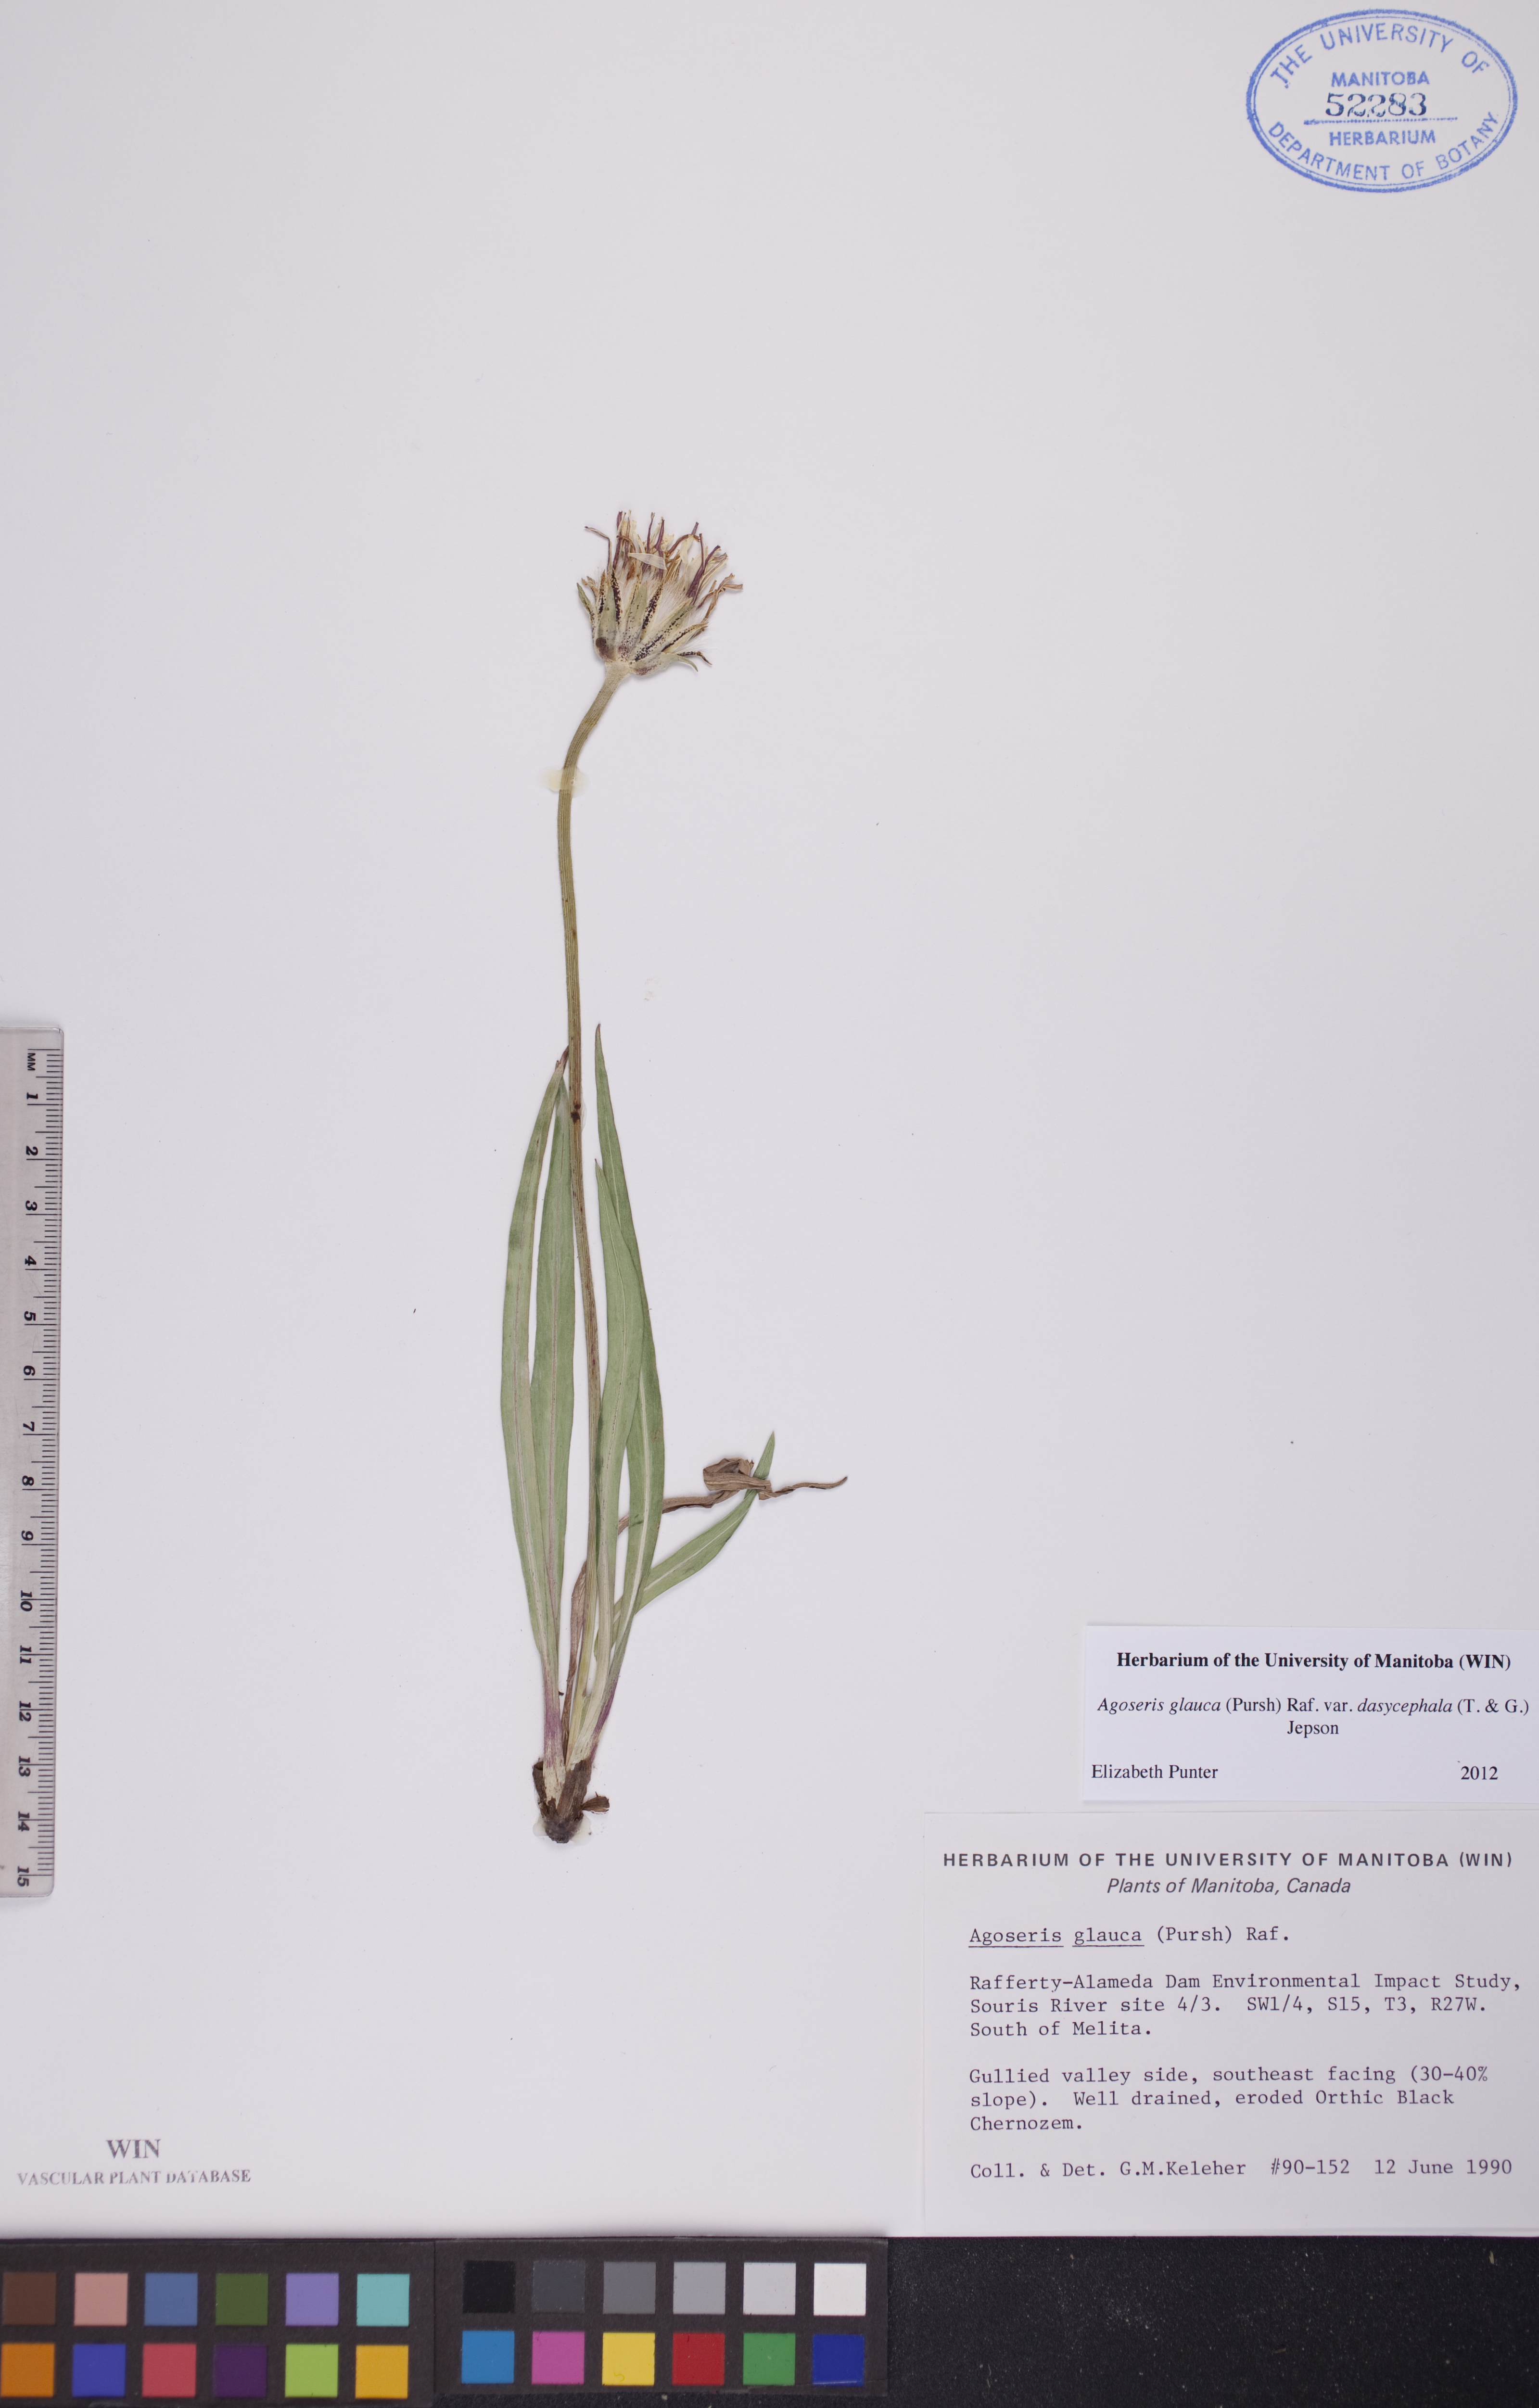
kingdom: Plantae
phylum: Tracheophyta
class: Magnoliopsida
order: Asterales
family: Asteraceae
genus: Agoseris
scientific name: Agoseris glauca
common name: Prairie agoseris
